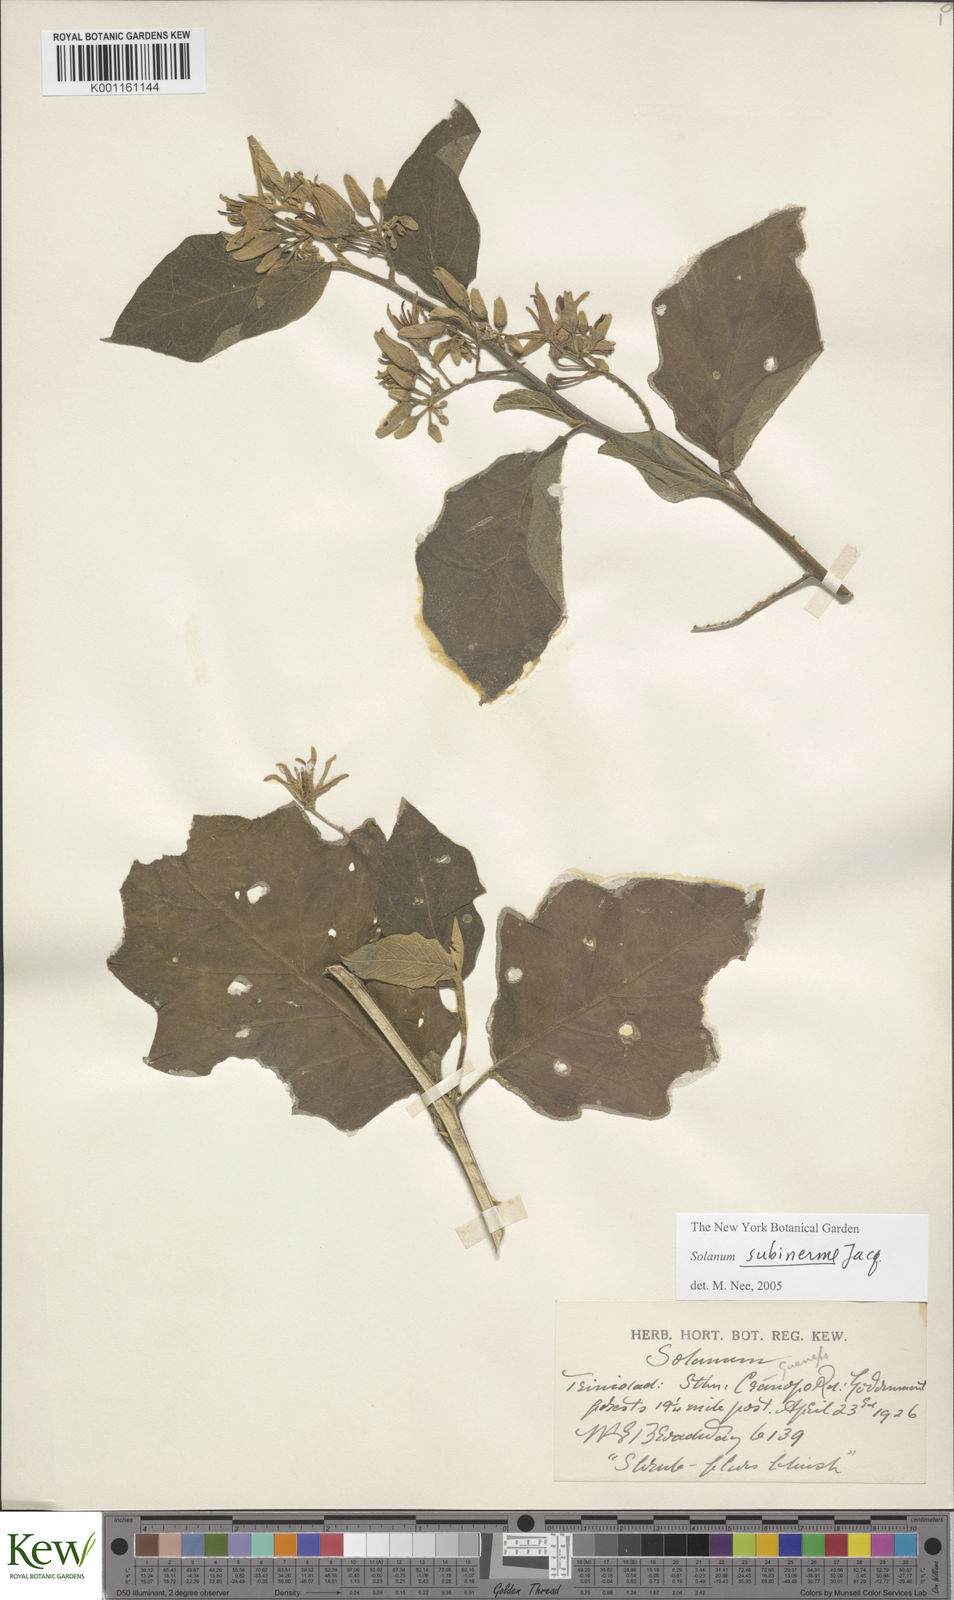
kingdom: Plantae
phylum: Tracheophyta
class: Magnoliopsida
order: Solanales
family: Solanaceae
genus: Solanum
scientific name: Solanum subinerme
